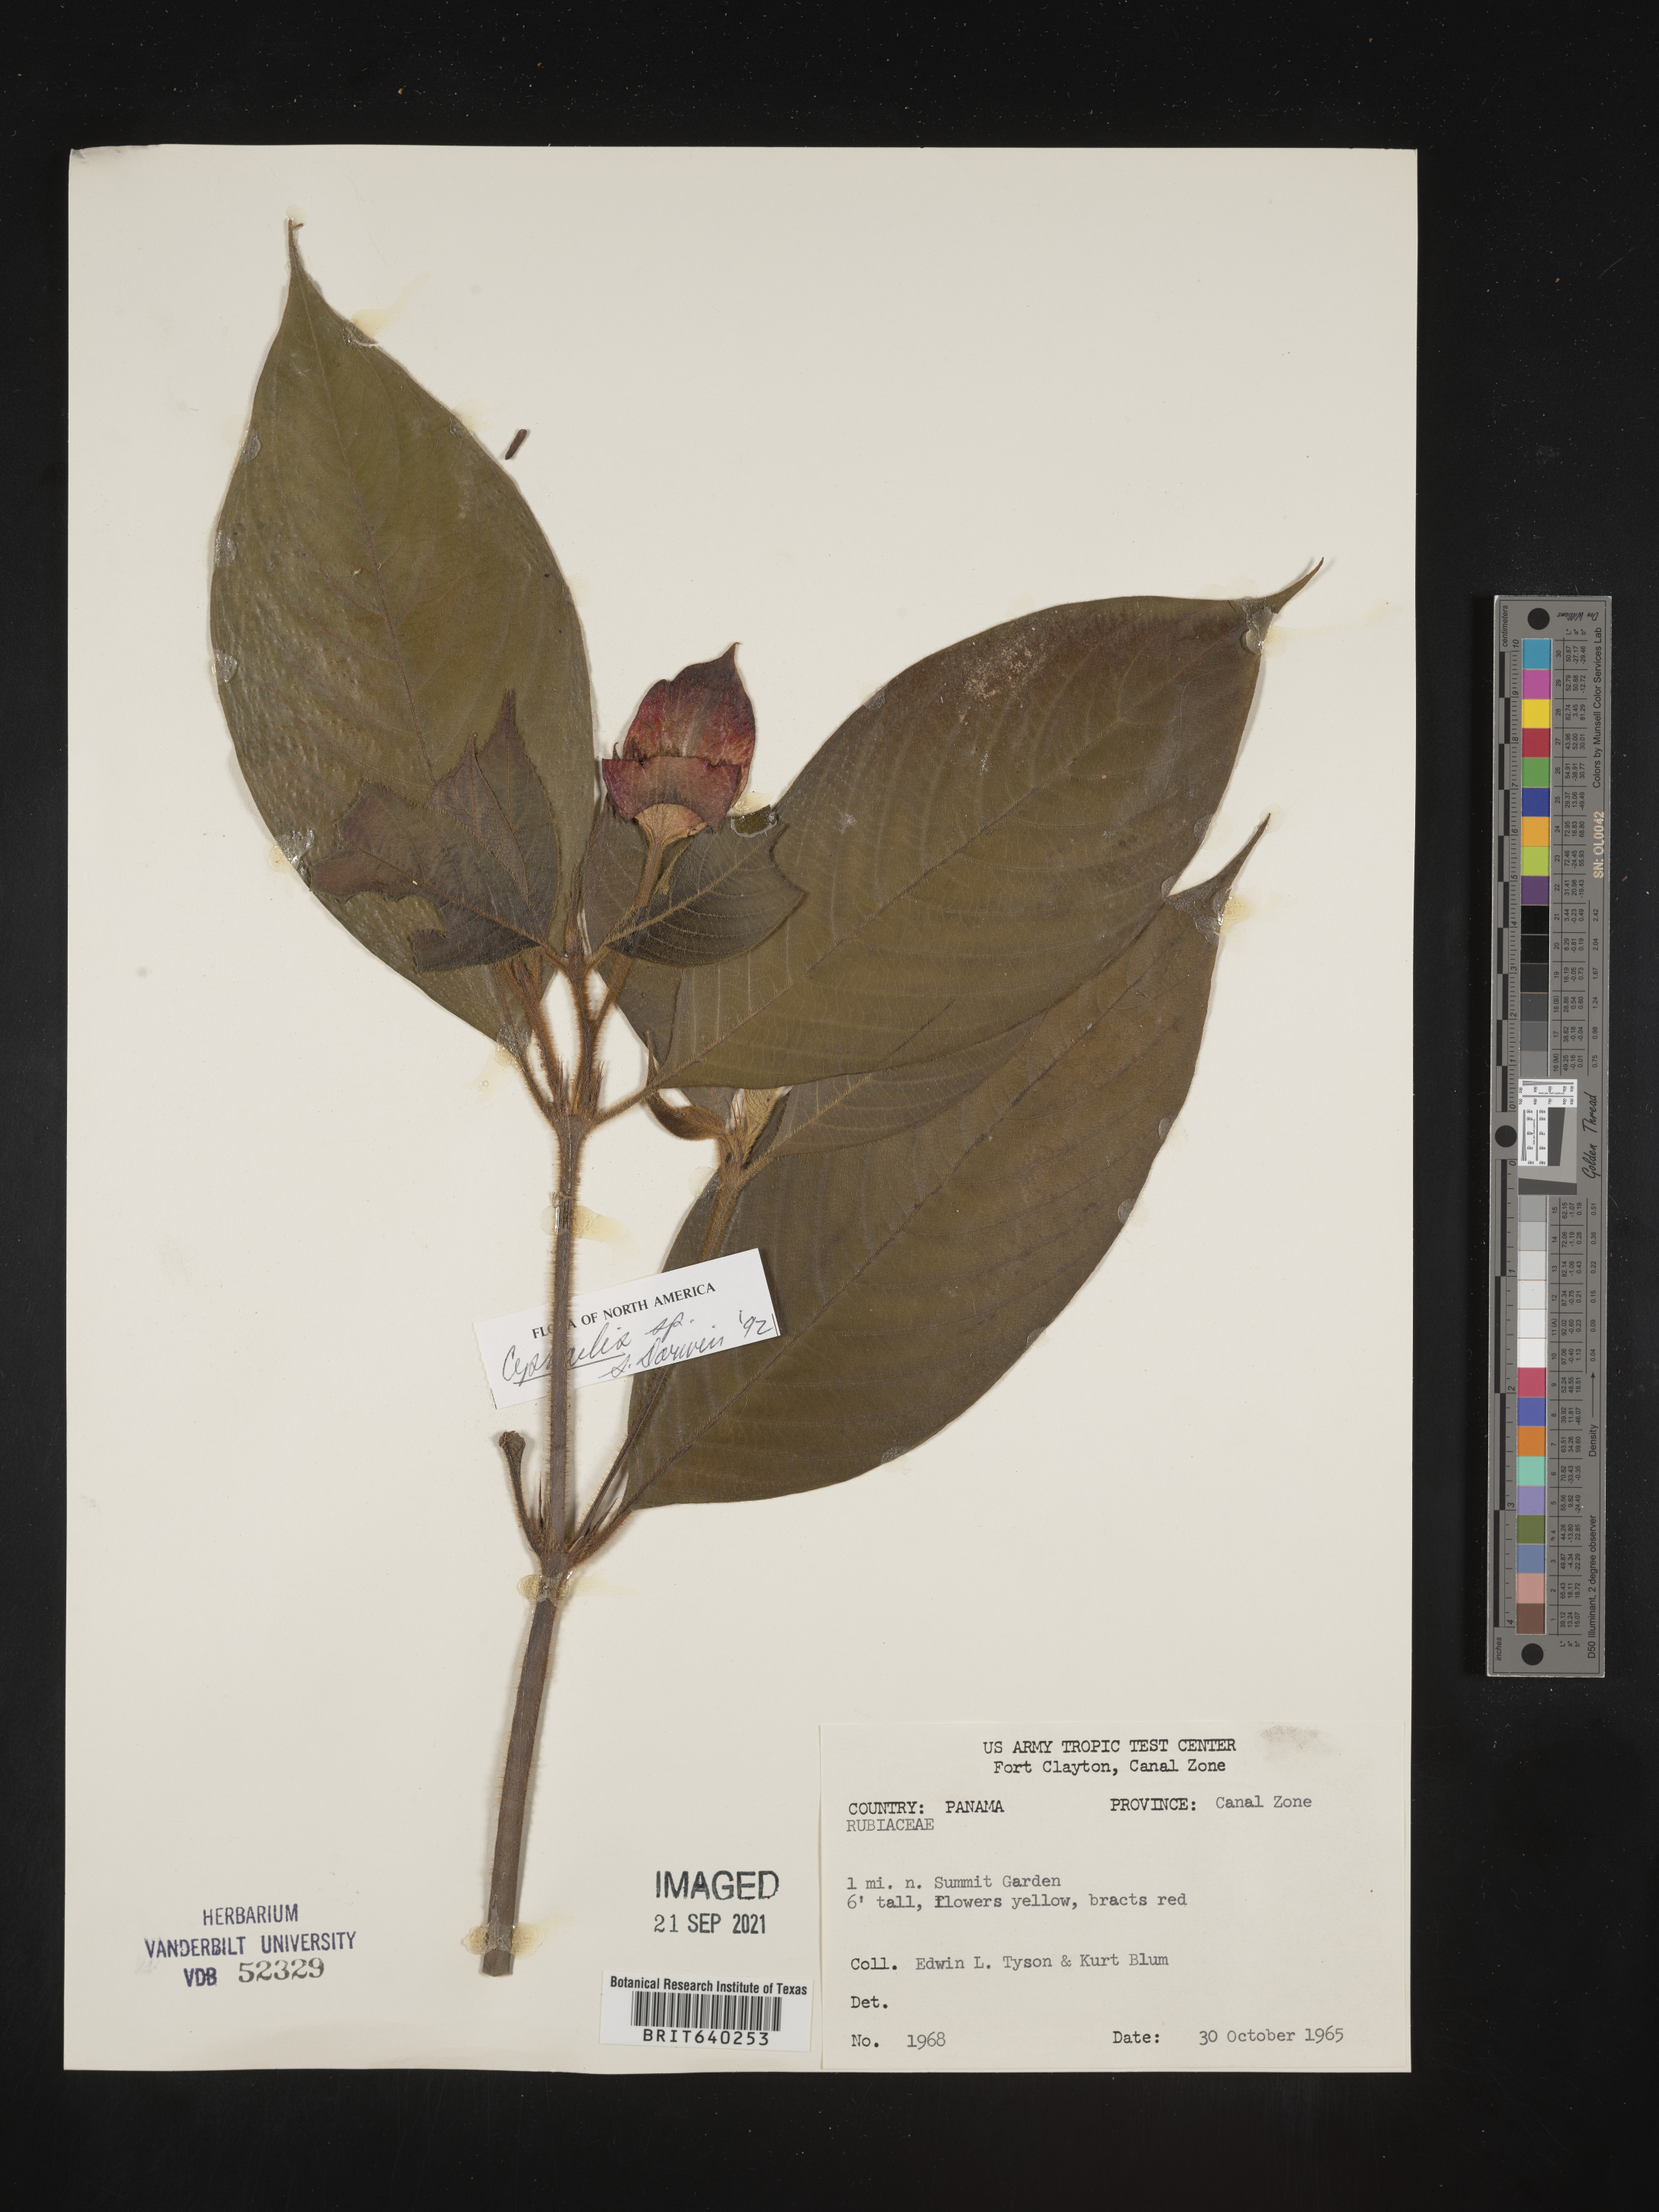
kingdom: Plantae
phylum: Tracheophyta
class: Magnoliopsida
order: Gentianales
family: Rubiaceae
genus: Psychotria
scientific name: Psychotria
